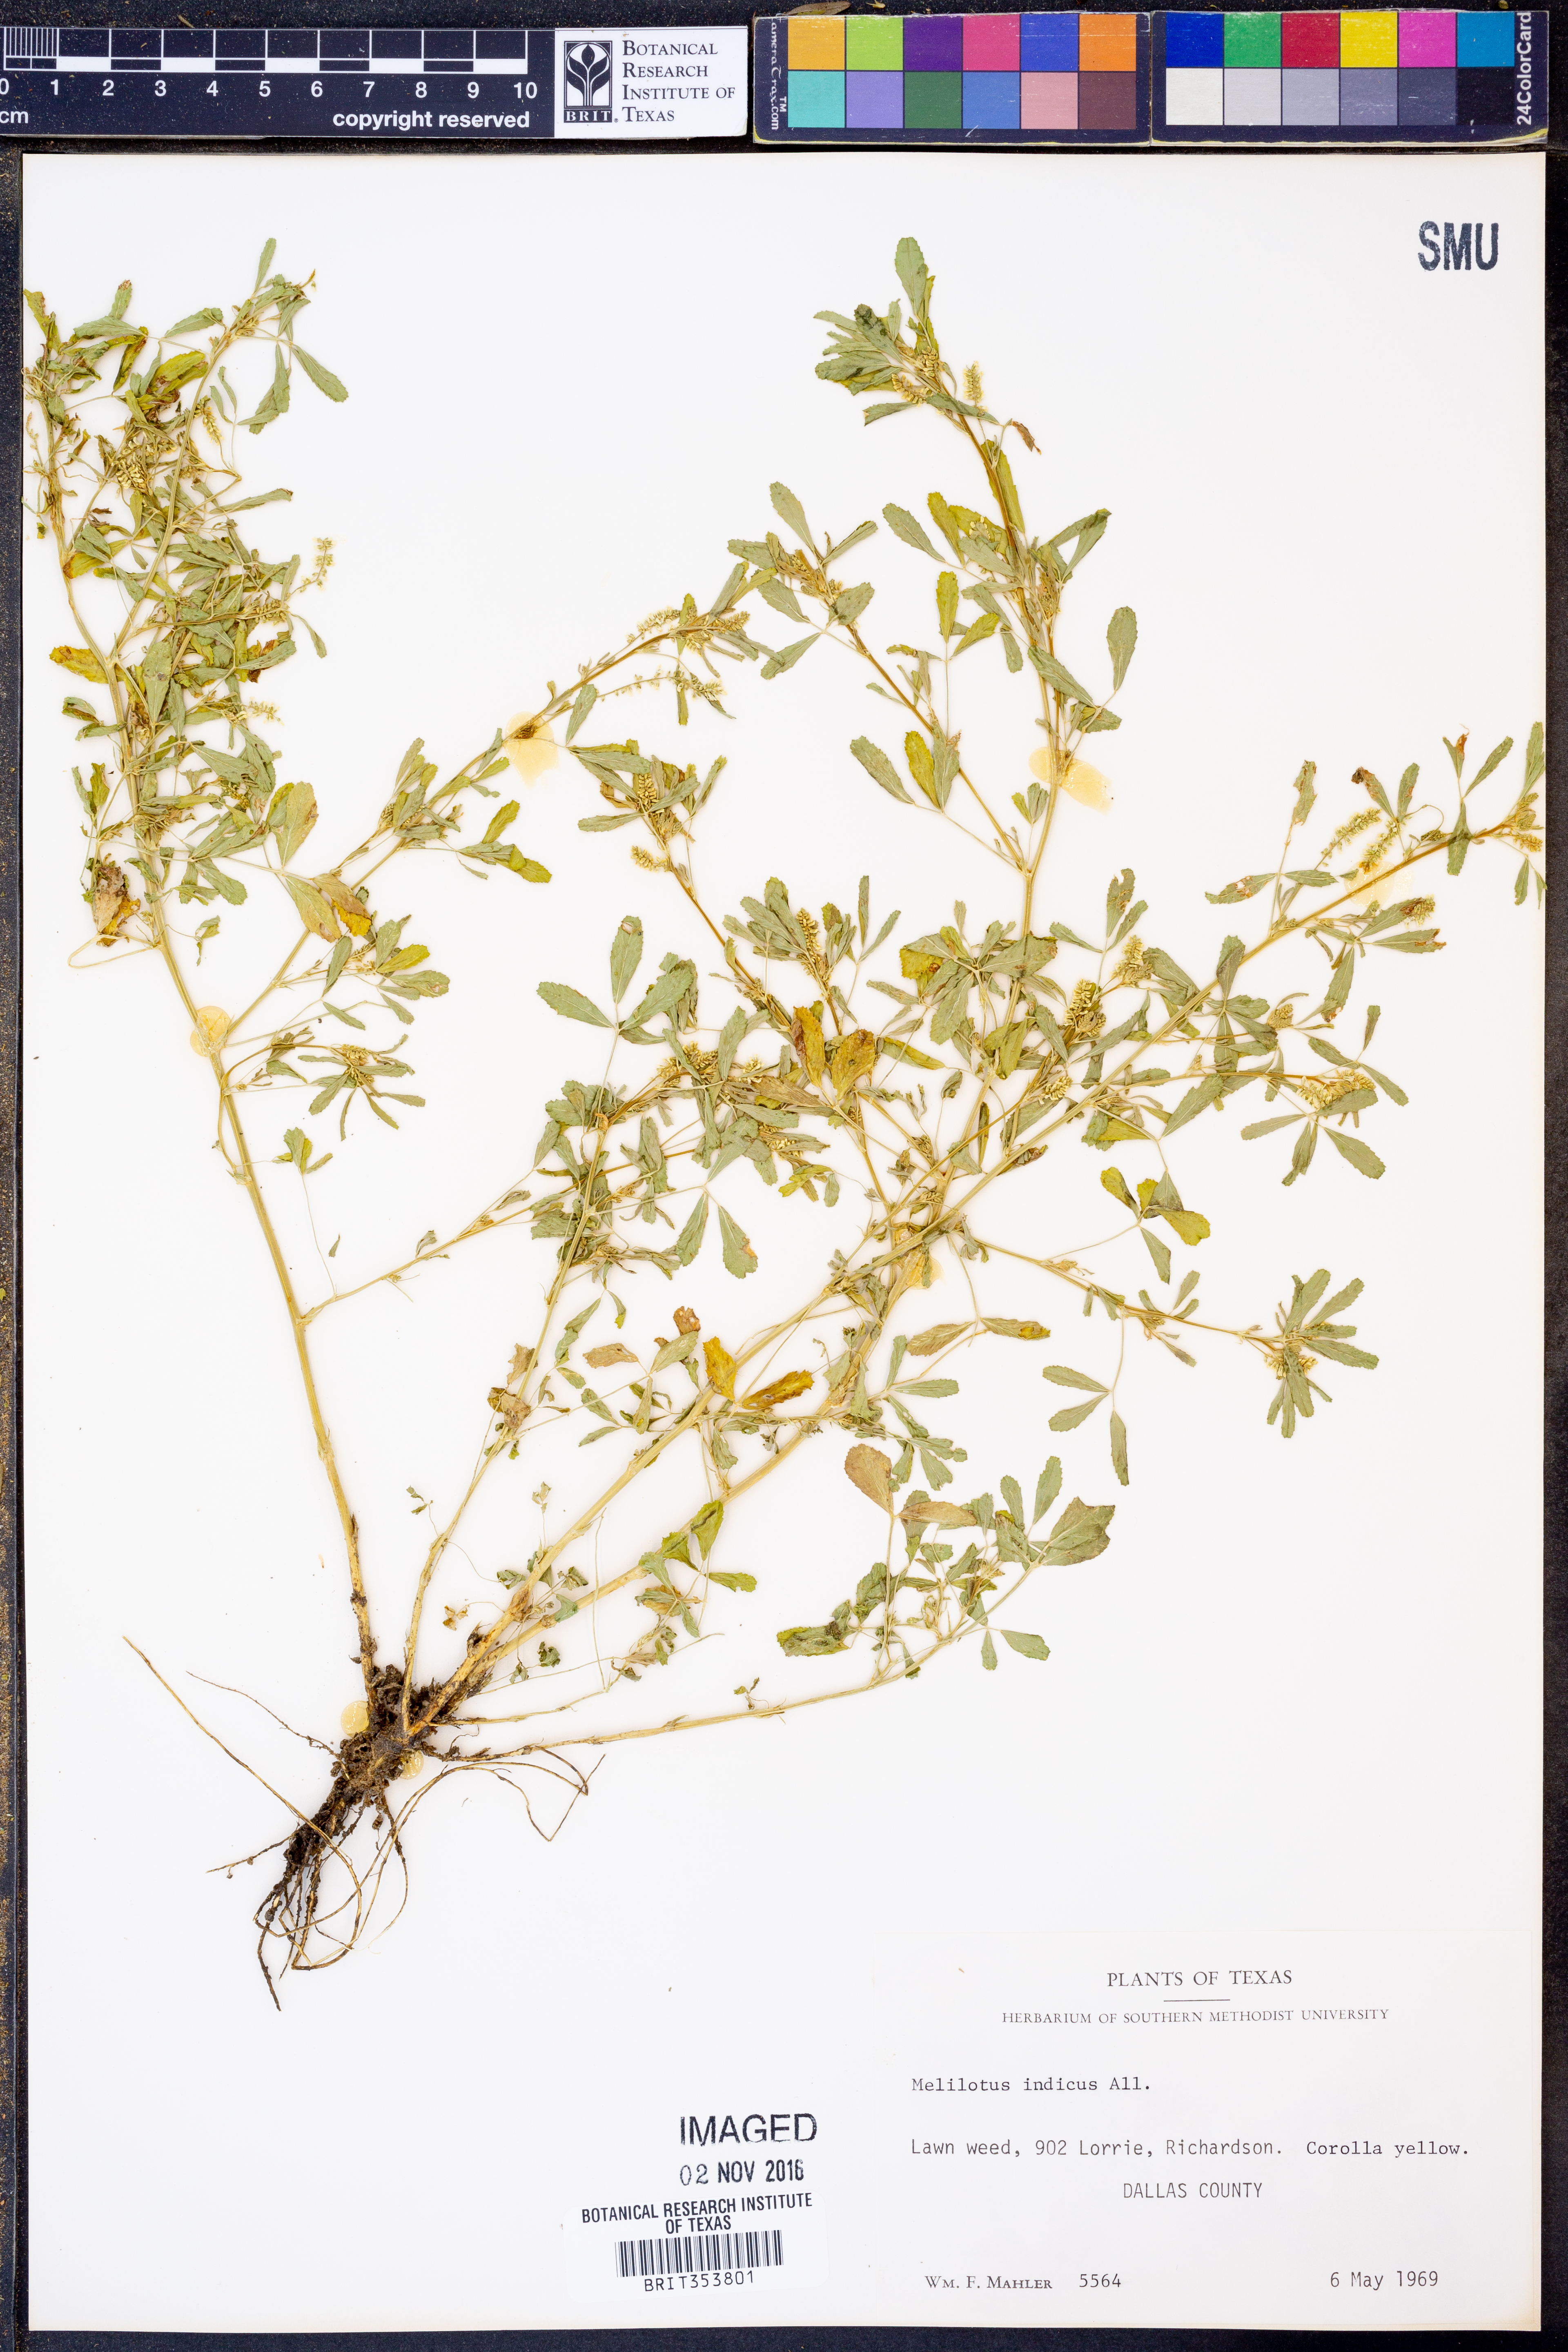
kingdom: Plantae
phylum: Tracheophyta
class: Magnoliopsida
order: Fabales
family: Fabaceae
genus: Melilotus
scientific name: Melilotus indicus
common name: Small melilot
